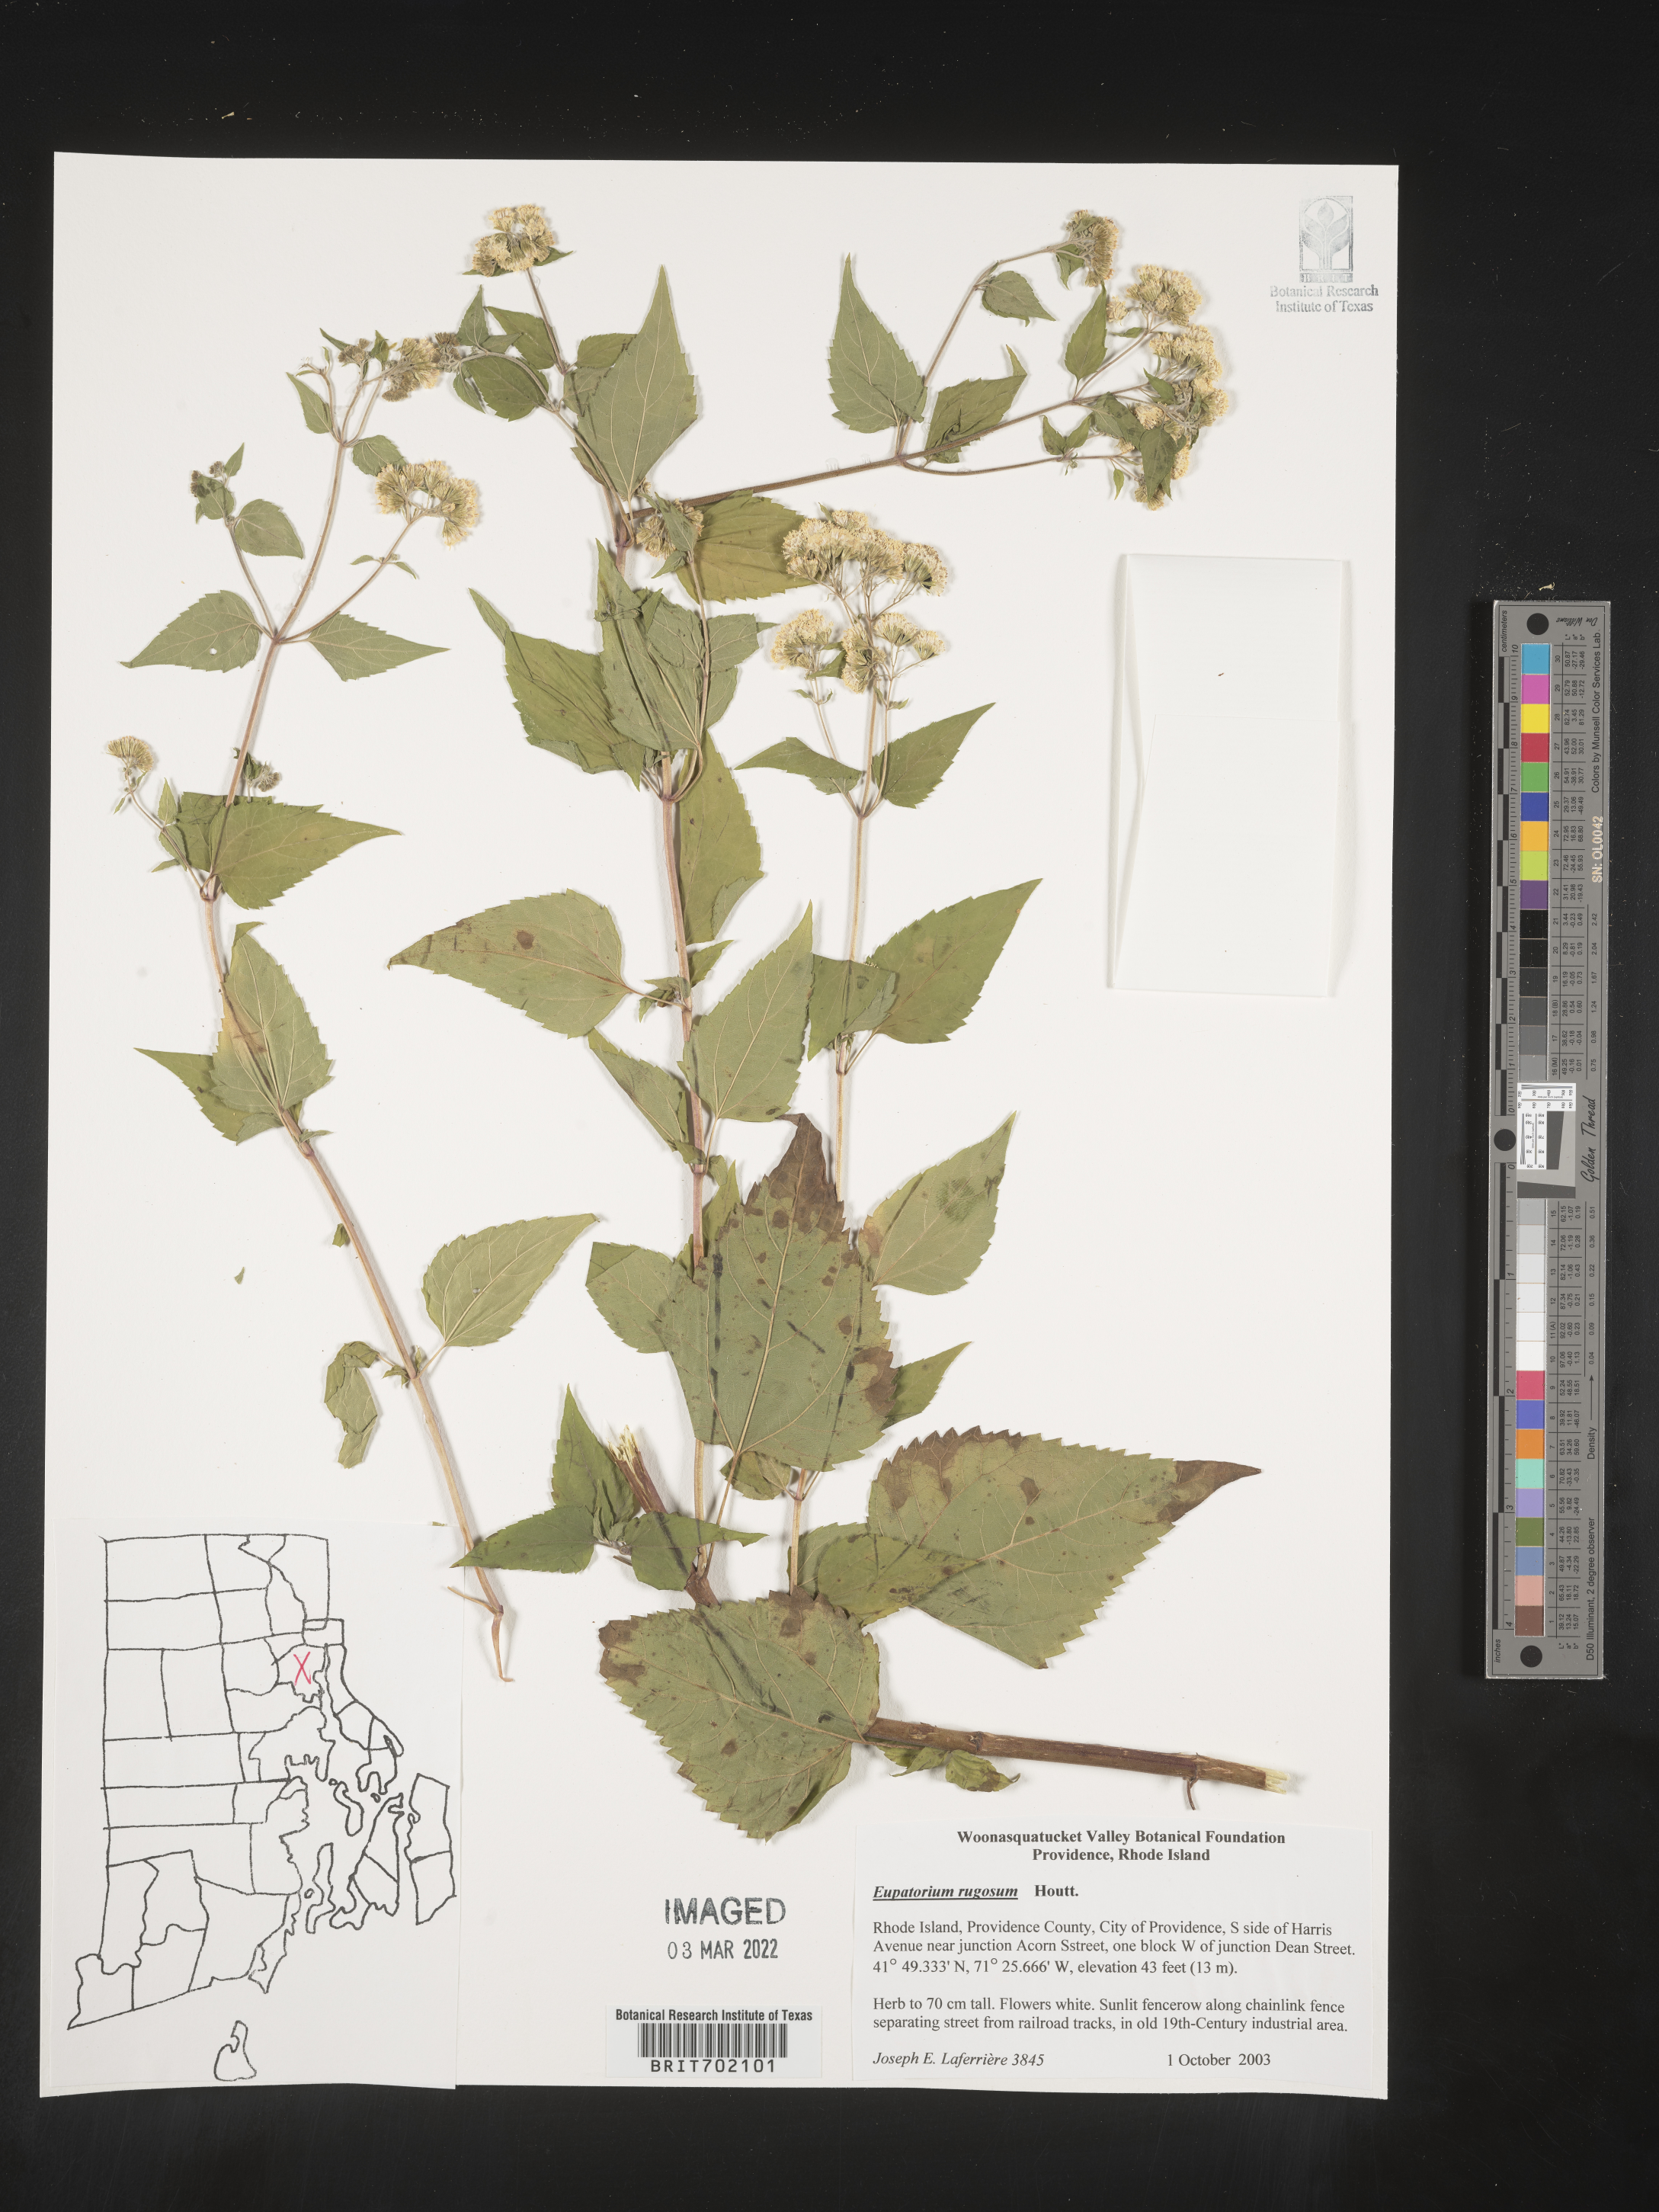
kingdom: Plantae
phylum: Tracheophyta
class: Magnoliopsida
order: Asterales
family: Asteraceae
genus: Cronquistianthus
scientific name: Cronquistianthus bulliferus
